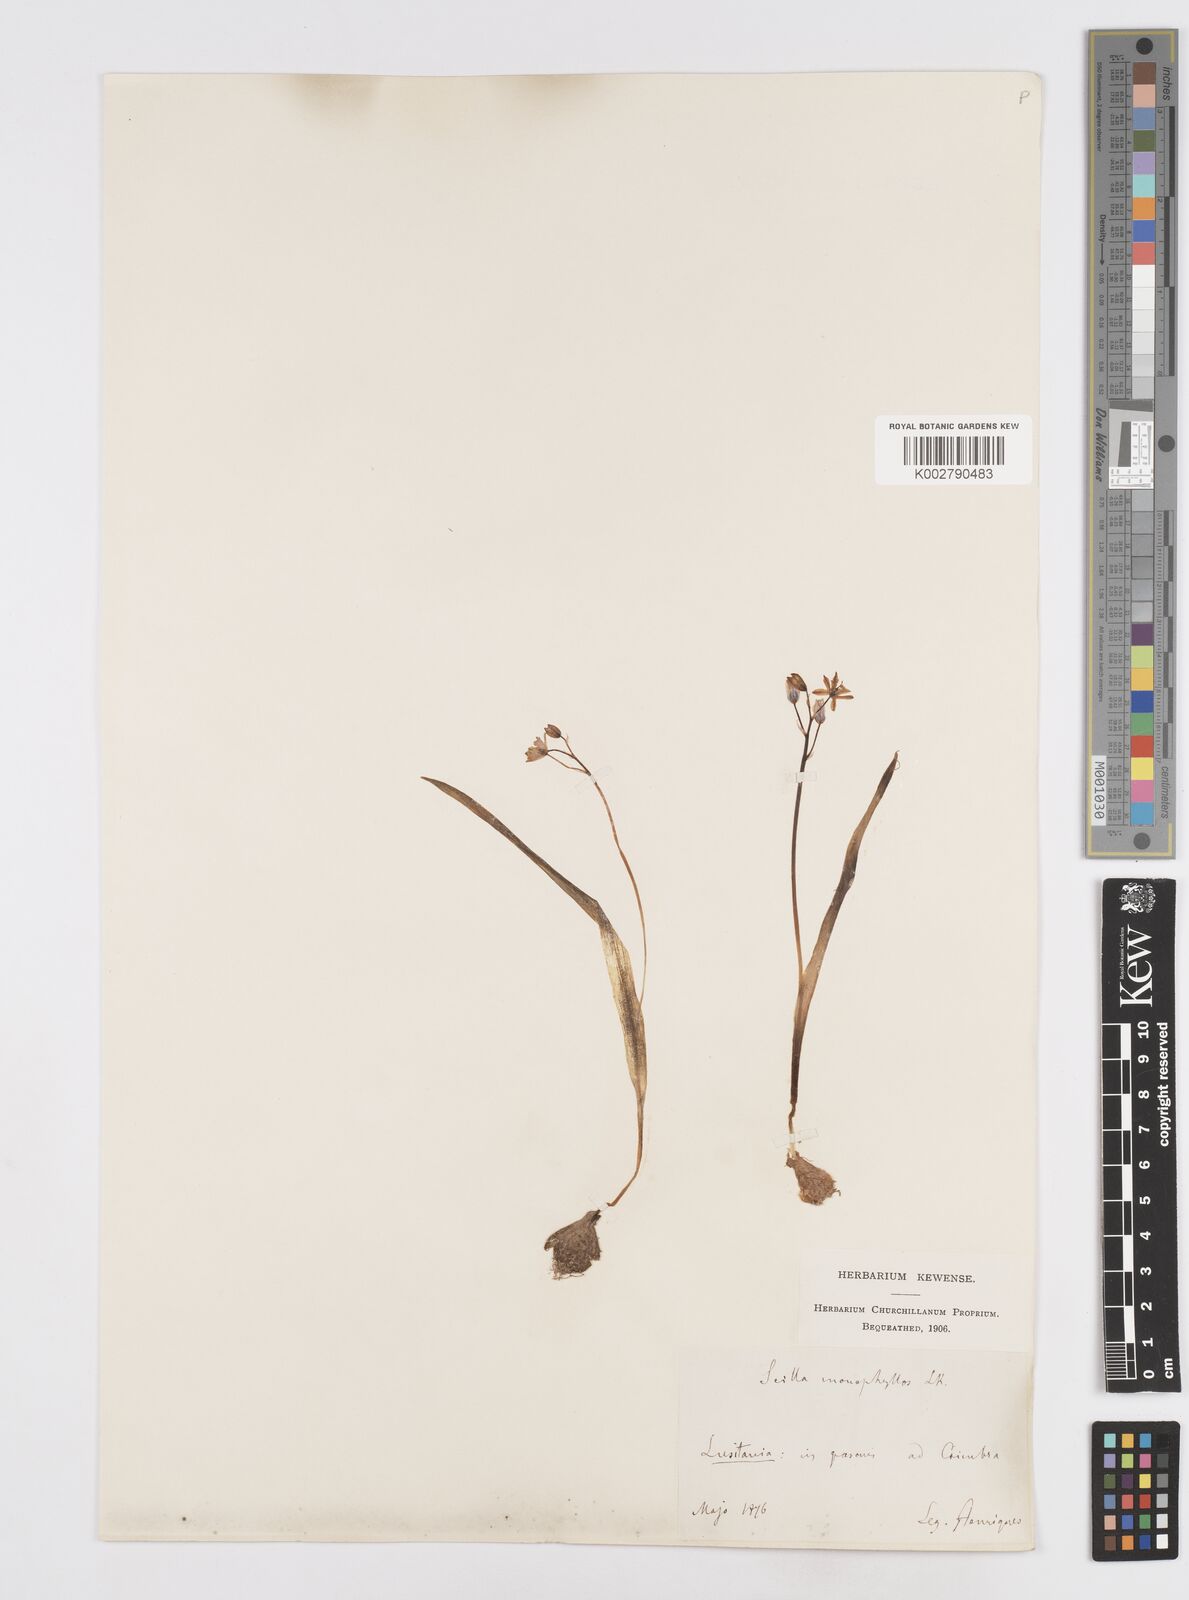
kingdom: Plantae
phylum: Tracheophyta
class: Liliopsida
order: Asparagales
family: Asparagaceae
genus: Scilla
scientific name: Scilla monophyllos
